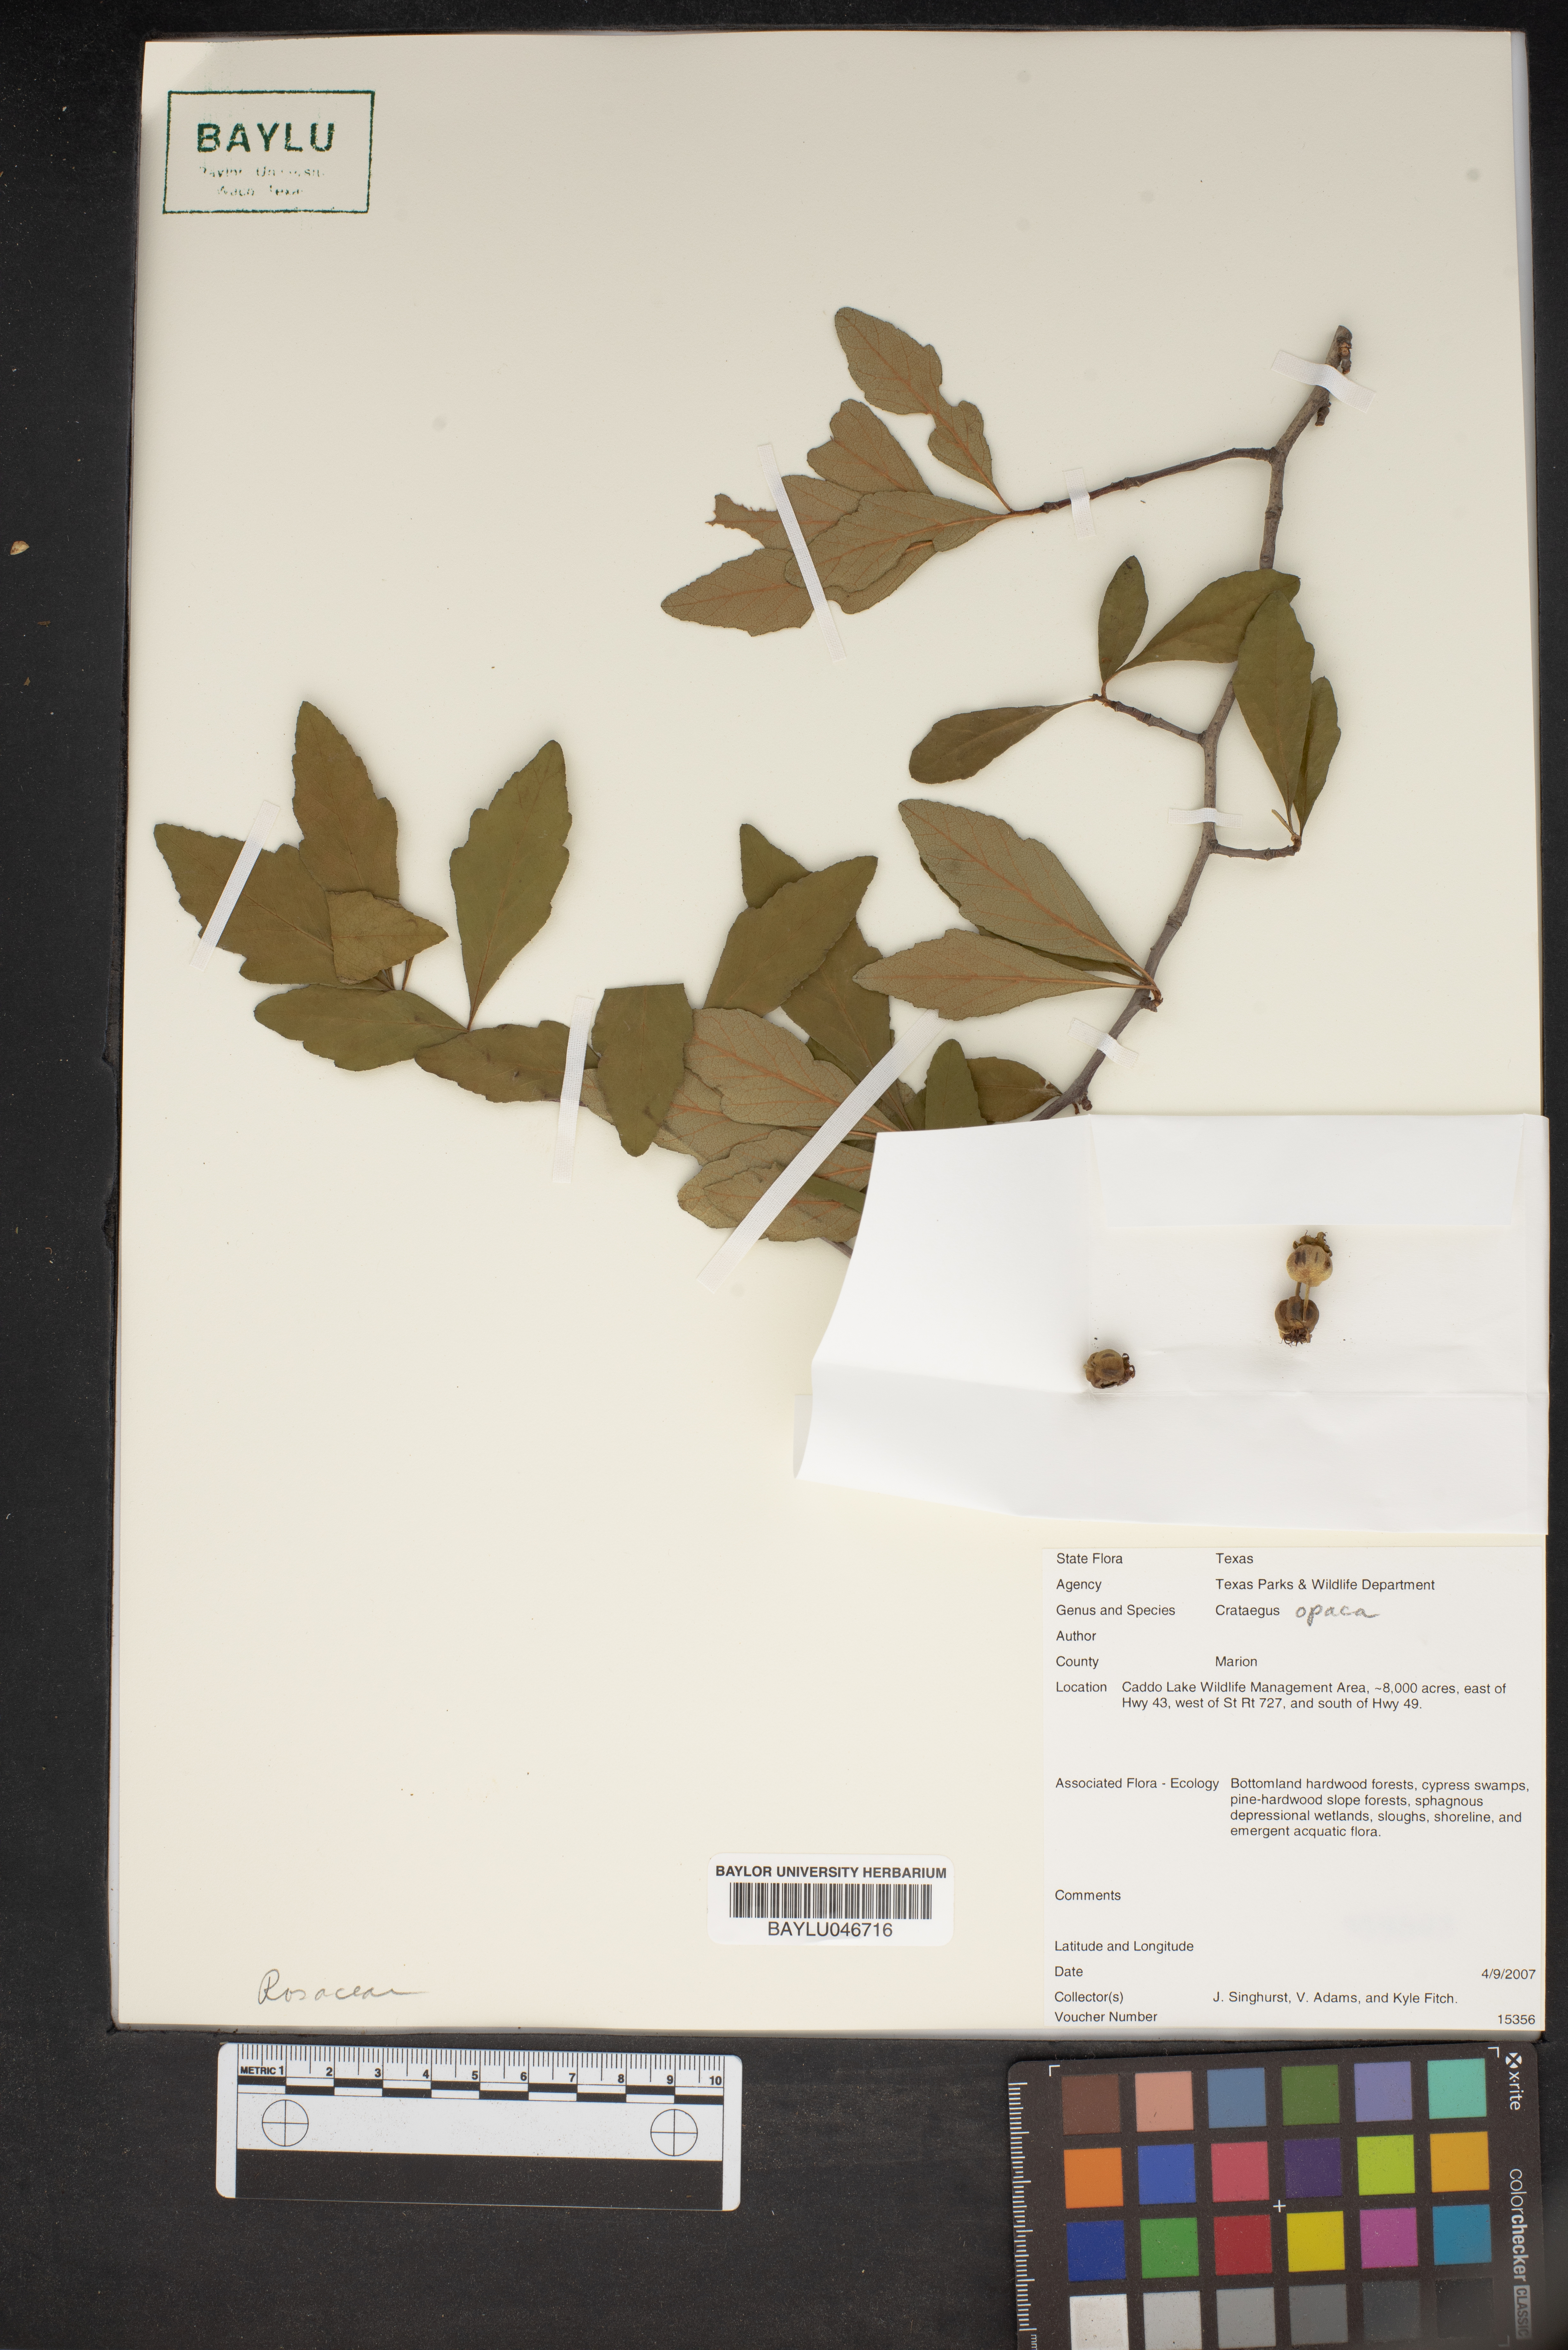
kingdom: Plantae
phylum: Tracheophyta
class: Magnoliopsida
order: Rosales
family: Rosaceae
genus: Crataegus
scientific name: Crataegus opaca
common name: Apple haw
